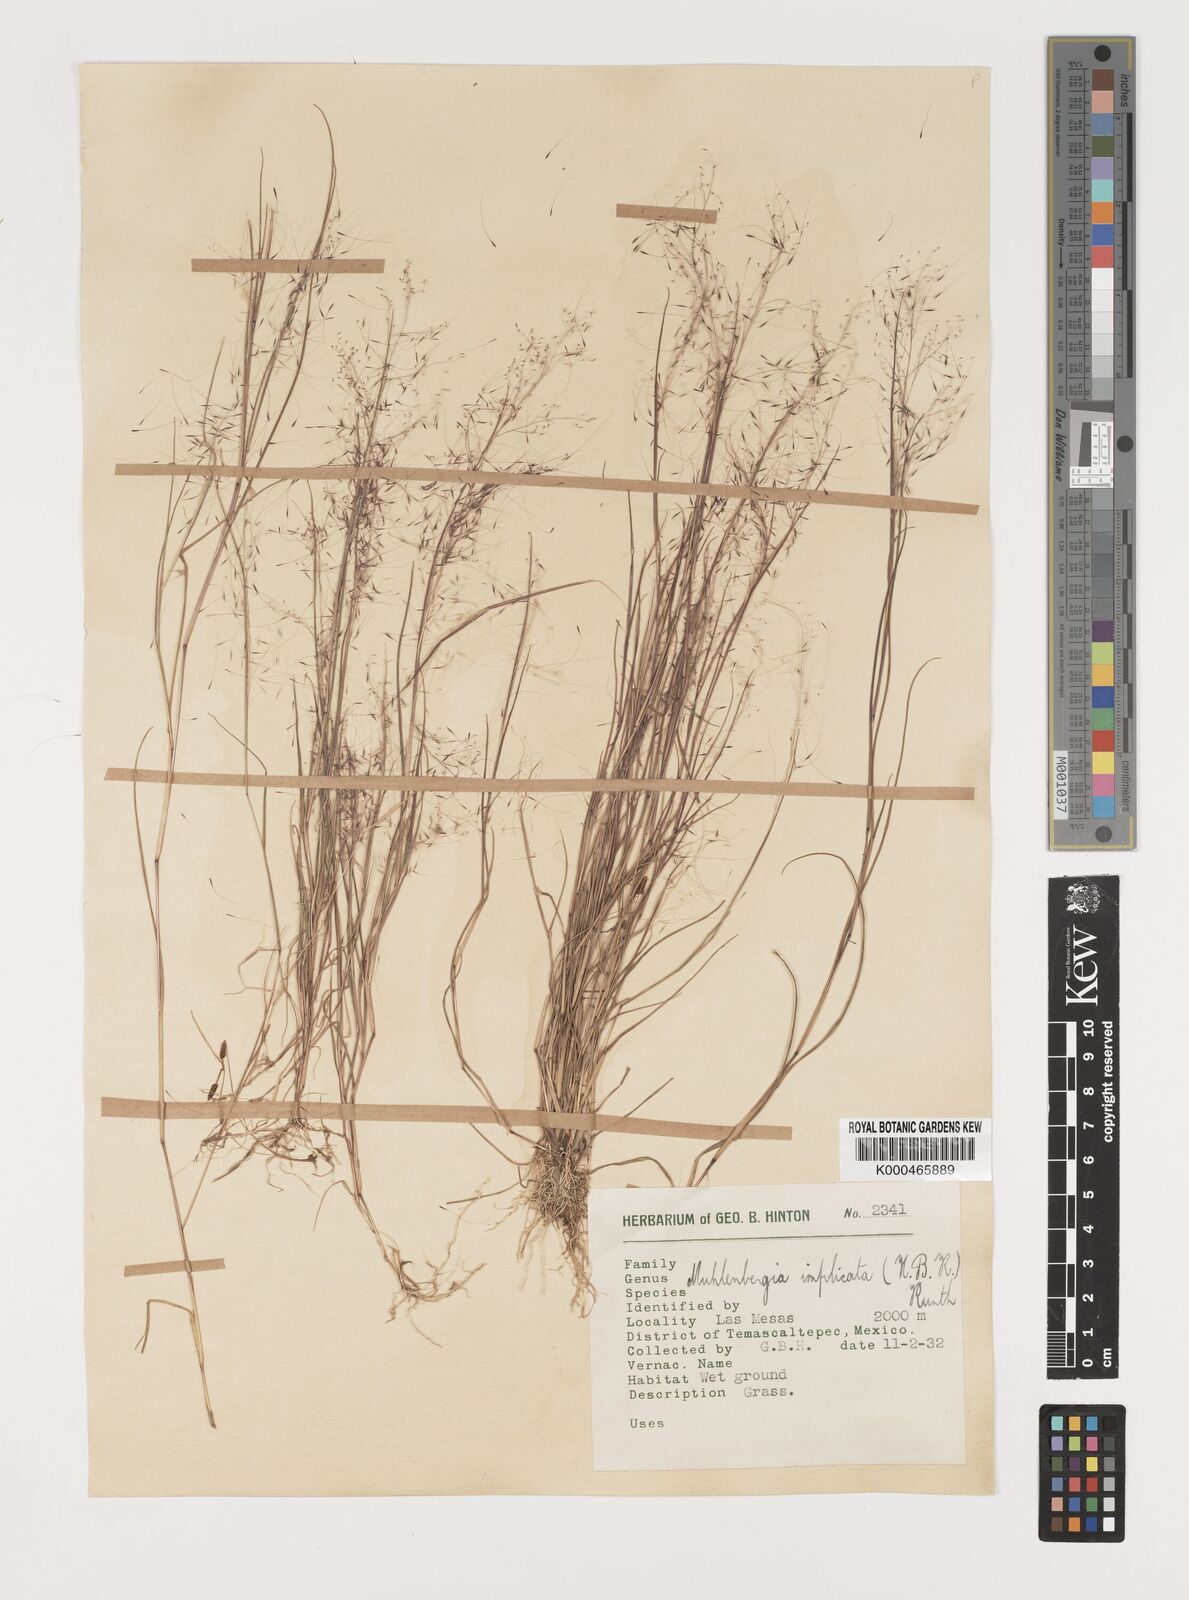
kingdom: Plantae
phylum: Tracheophyta
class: Liliopsida
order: Poales
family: Poaceae
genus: Muhlenbergia
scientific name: Muhlenbergia implicata
